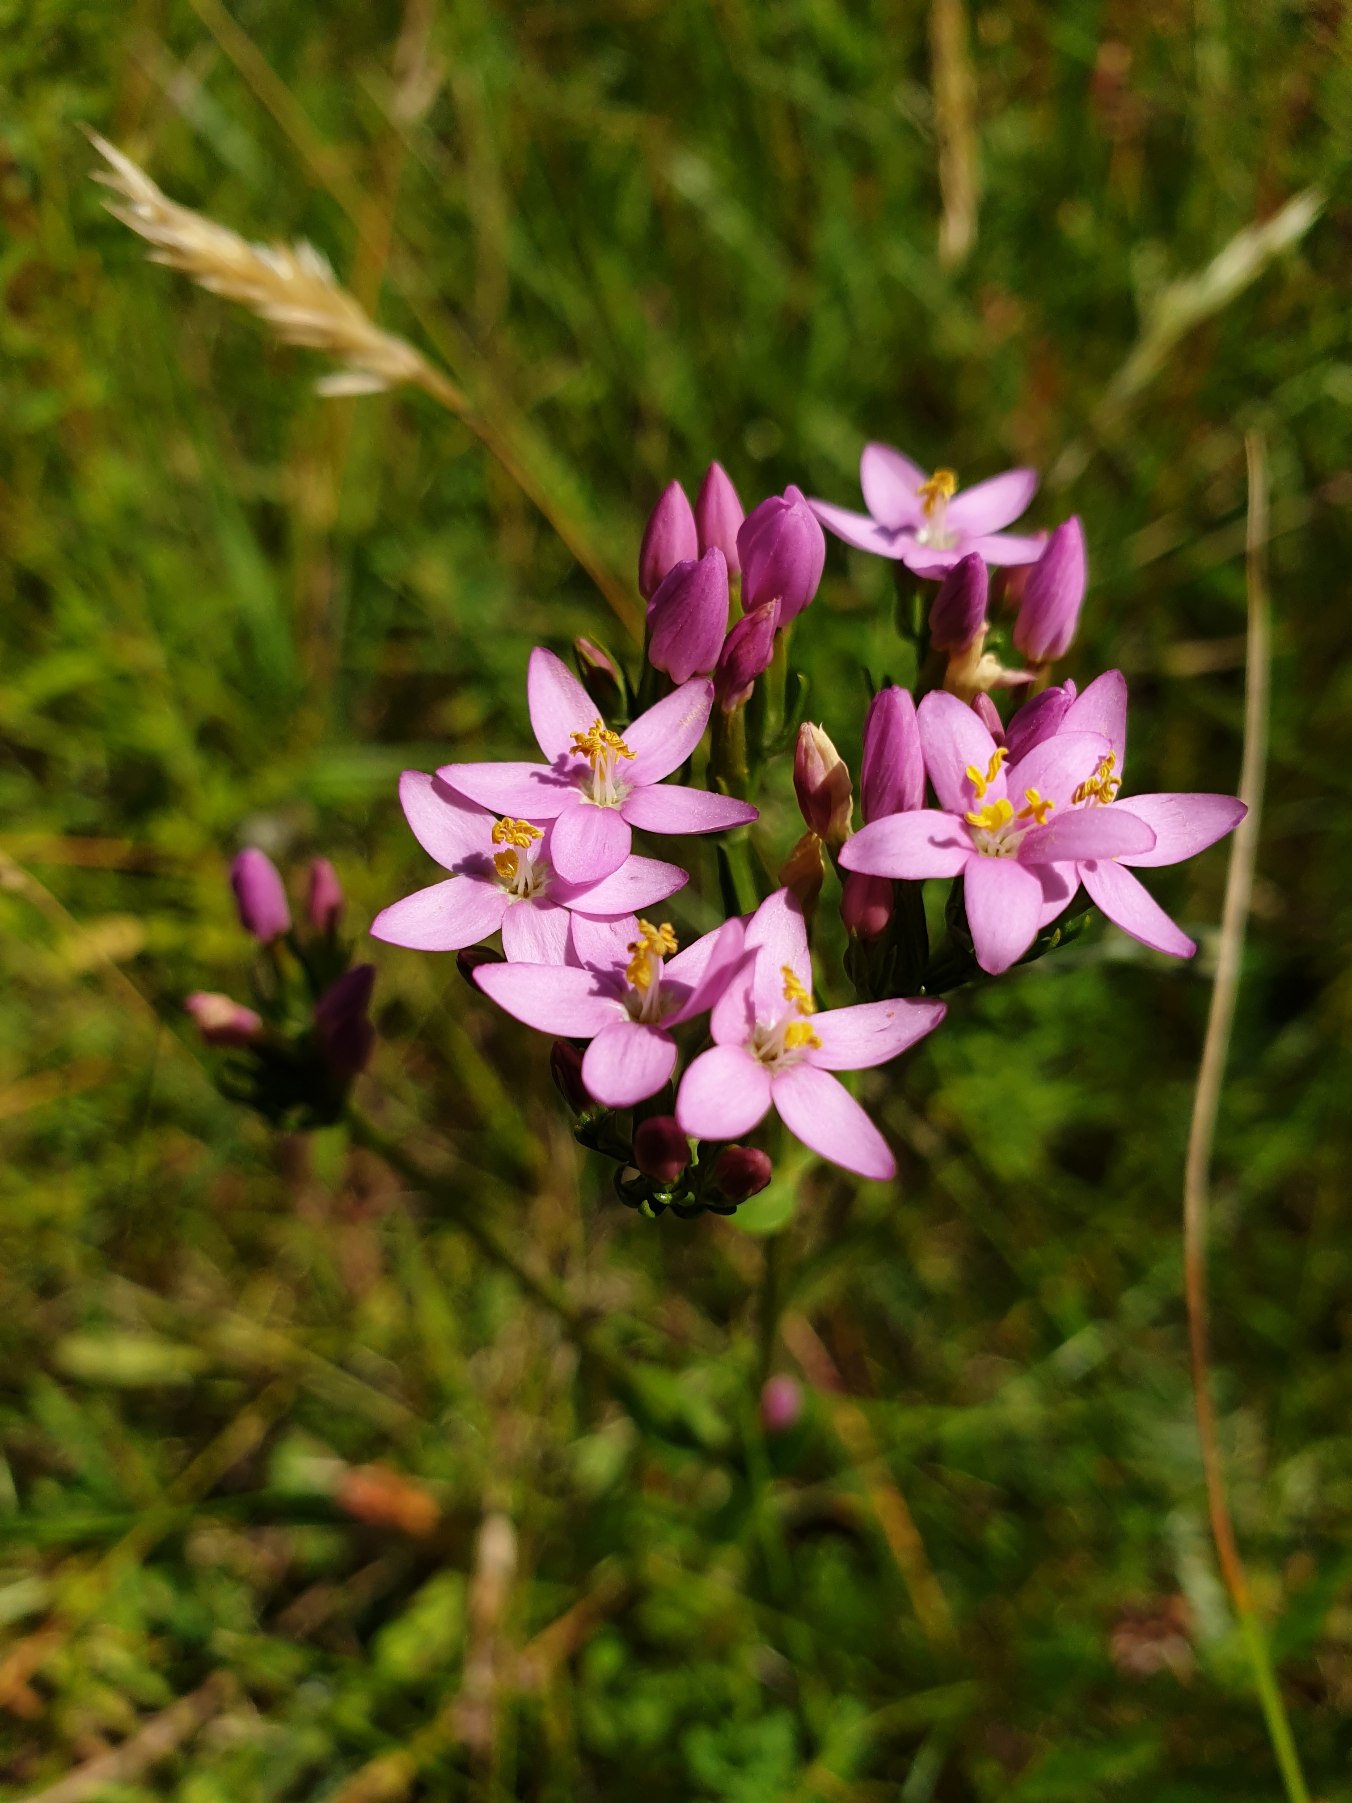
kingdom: Plantae
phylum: Tracheophyta
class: Magnoliopsida
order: Gentianales
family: Gentianaceae
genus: Centaurium
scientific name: Centaurium erythraea
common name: Mark-tusindgylden
